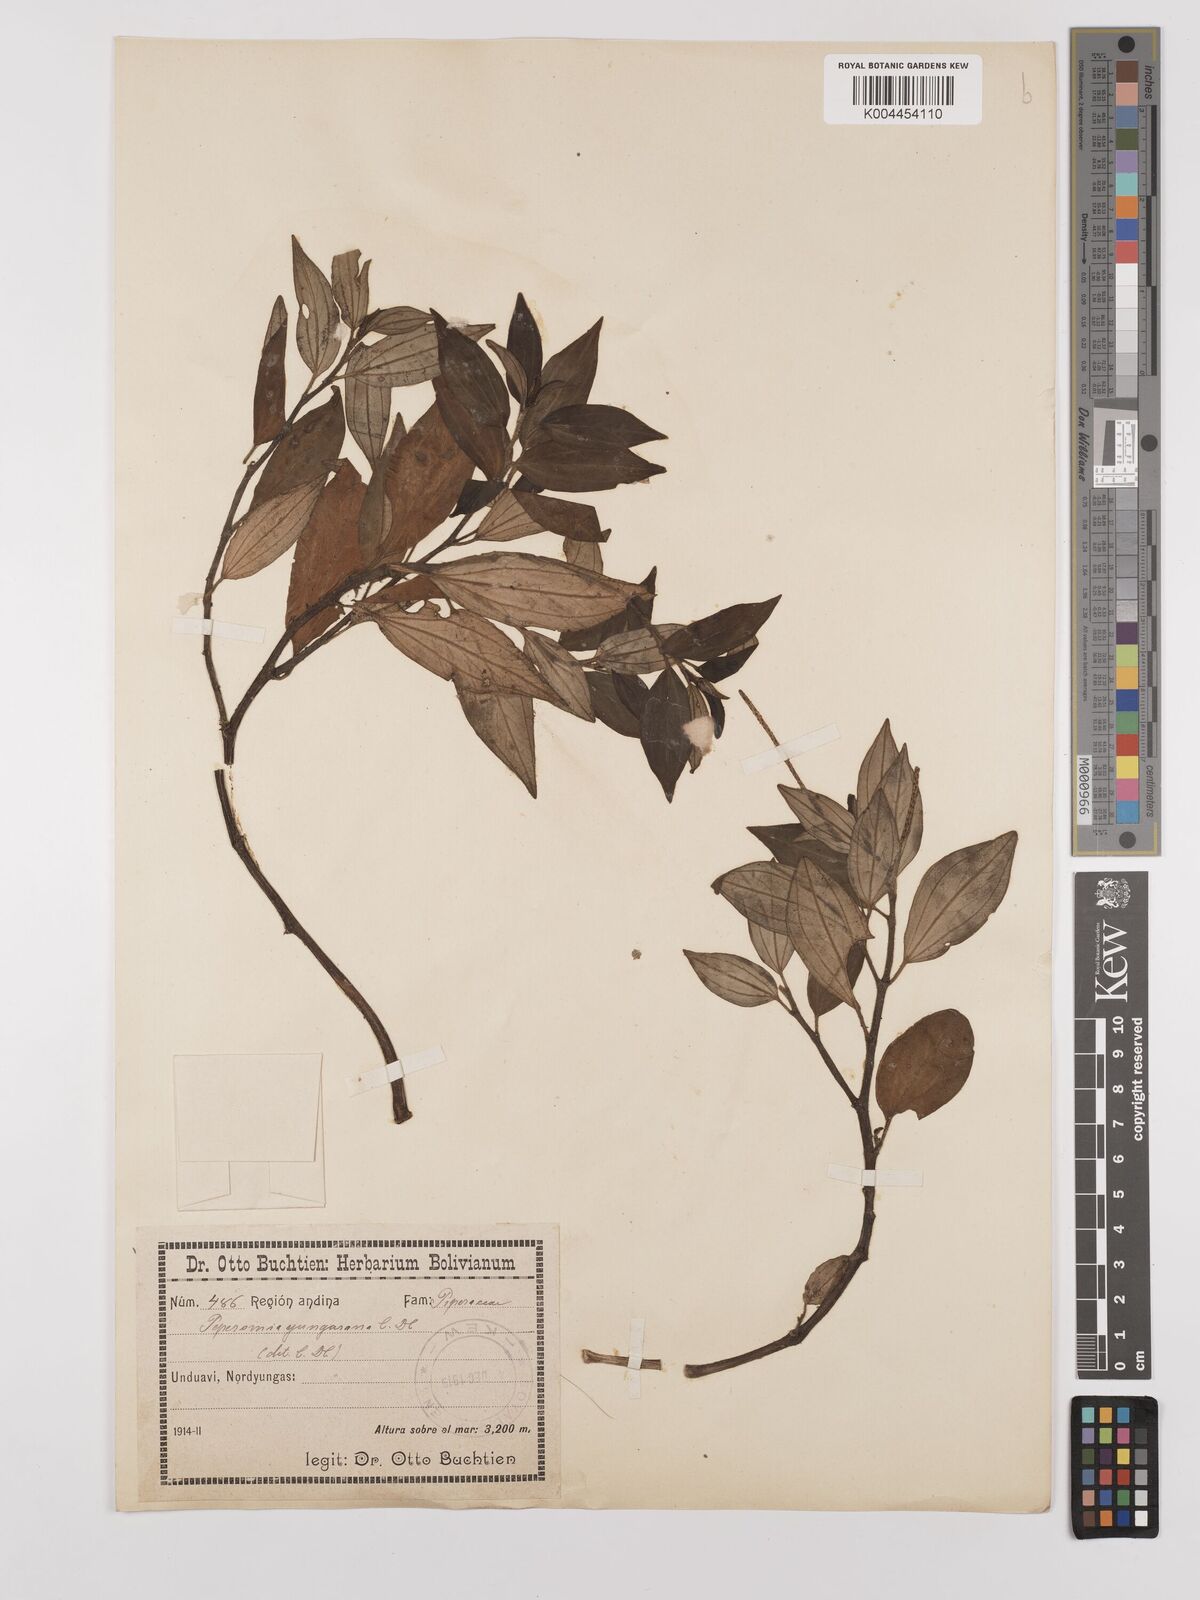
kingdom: Plantae
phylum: Tracheophyta
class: Magnoliopsida
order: Piperales
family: Piperaceae
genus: Peperomia
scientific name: Peperomia yungasana
